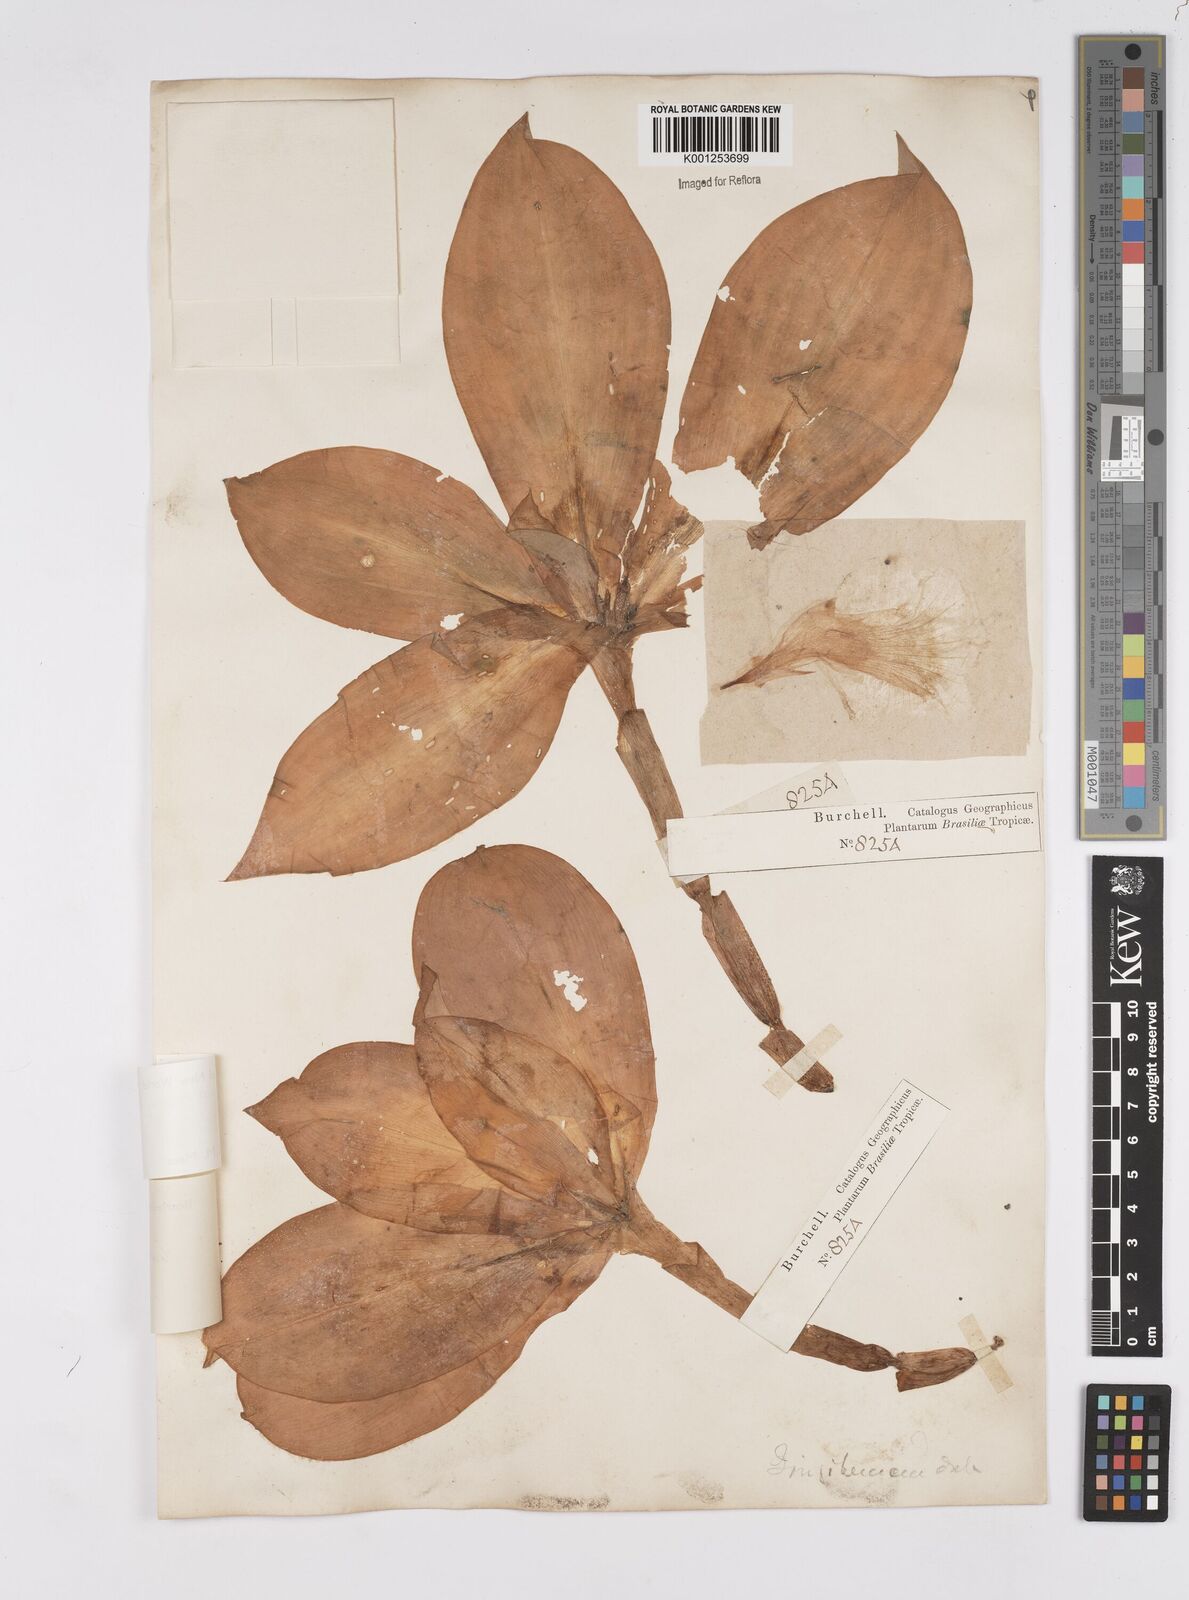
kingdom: Plantae
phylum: Tracheophyta
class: Liliopsida
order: Zingiberales
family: Costaceae
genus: Chamaecostus
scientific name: Chamaecostus subsessilis
